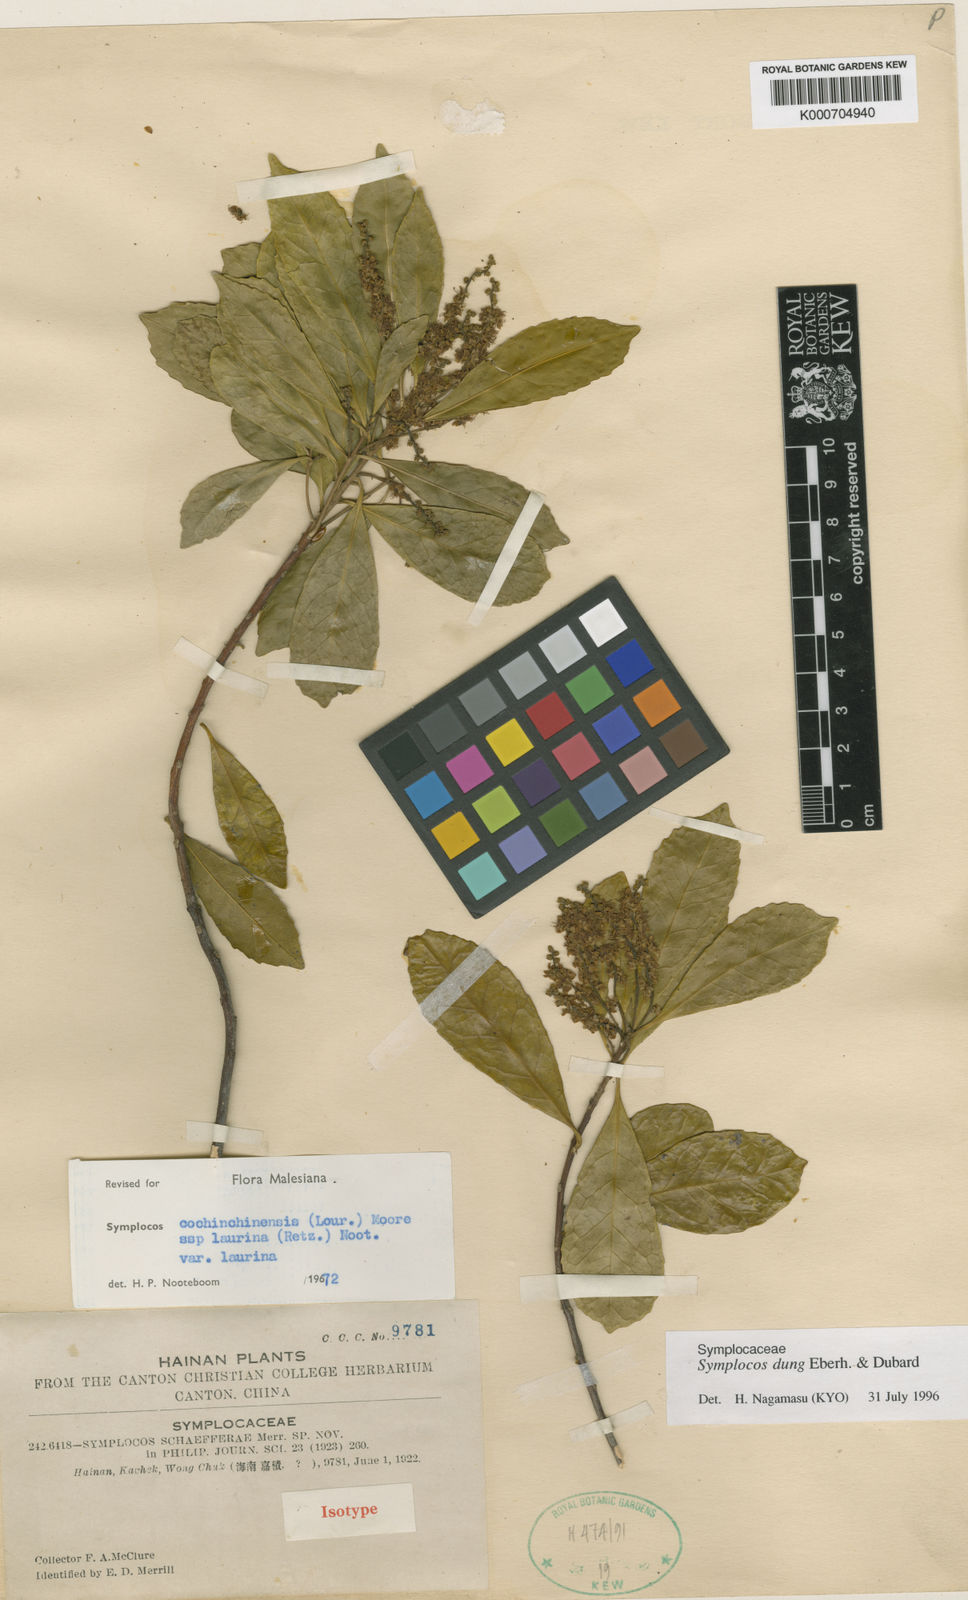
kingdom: Plantae
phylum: Tracheophyta
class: Magnoliopsida
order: Ericales
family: Symplocaceae
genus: Symplocos
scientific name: Symplocos
